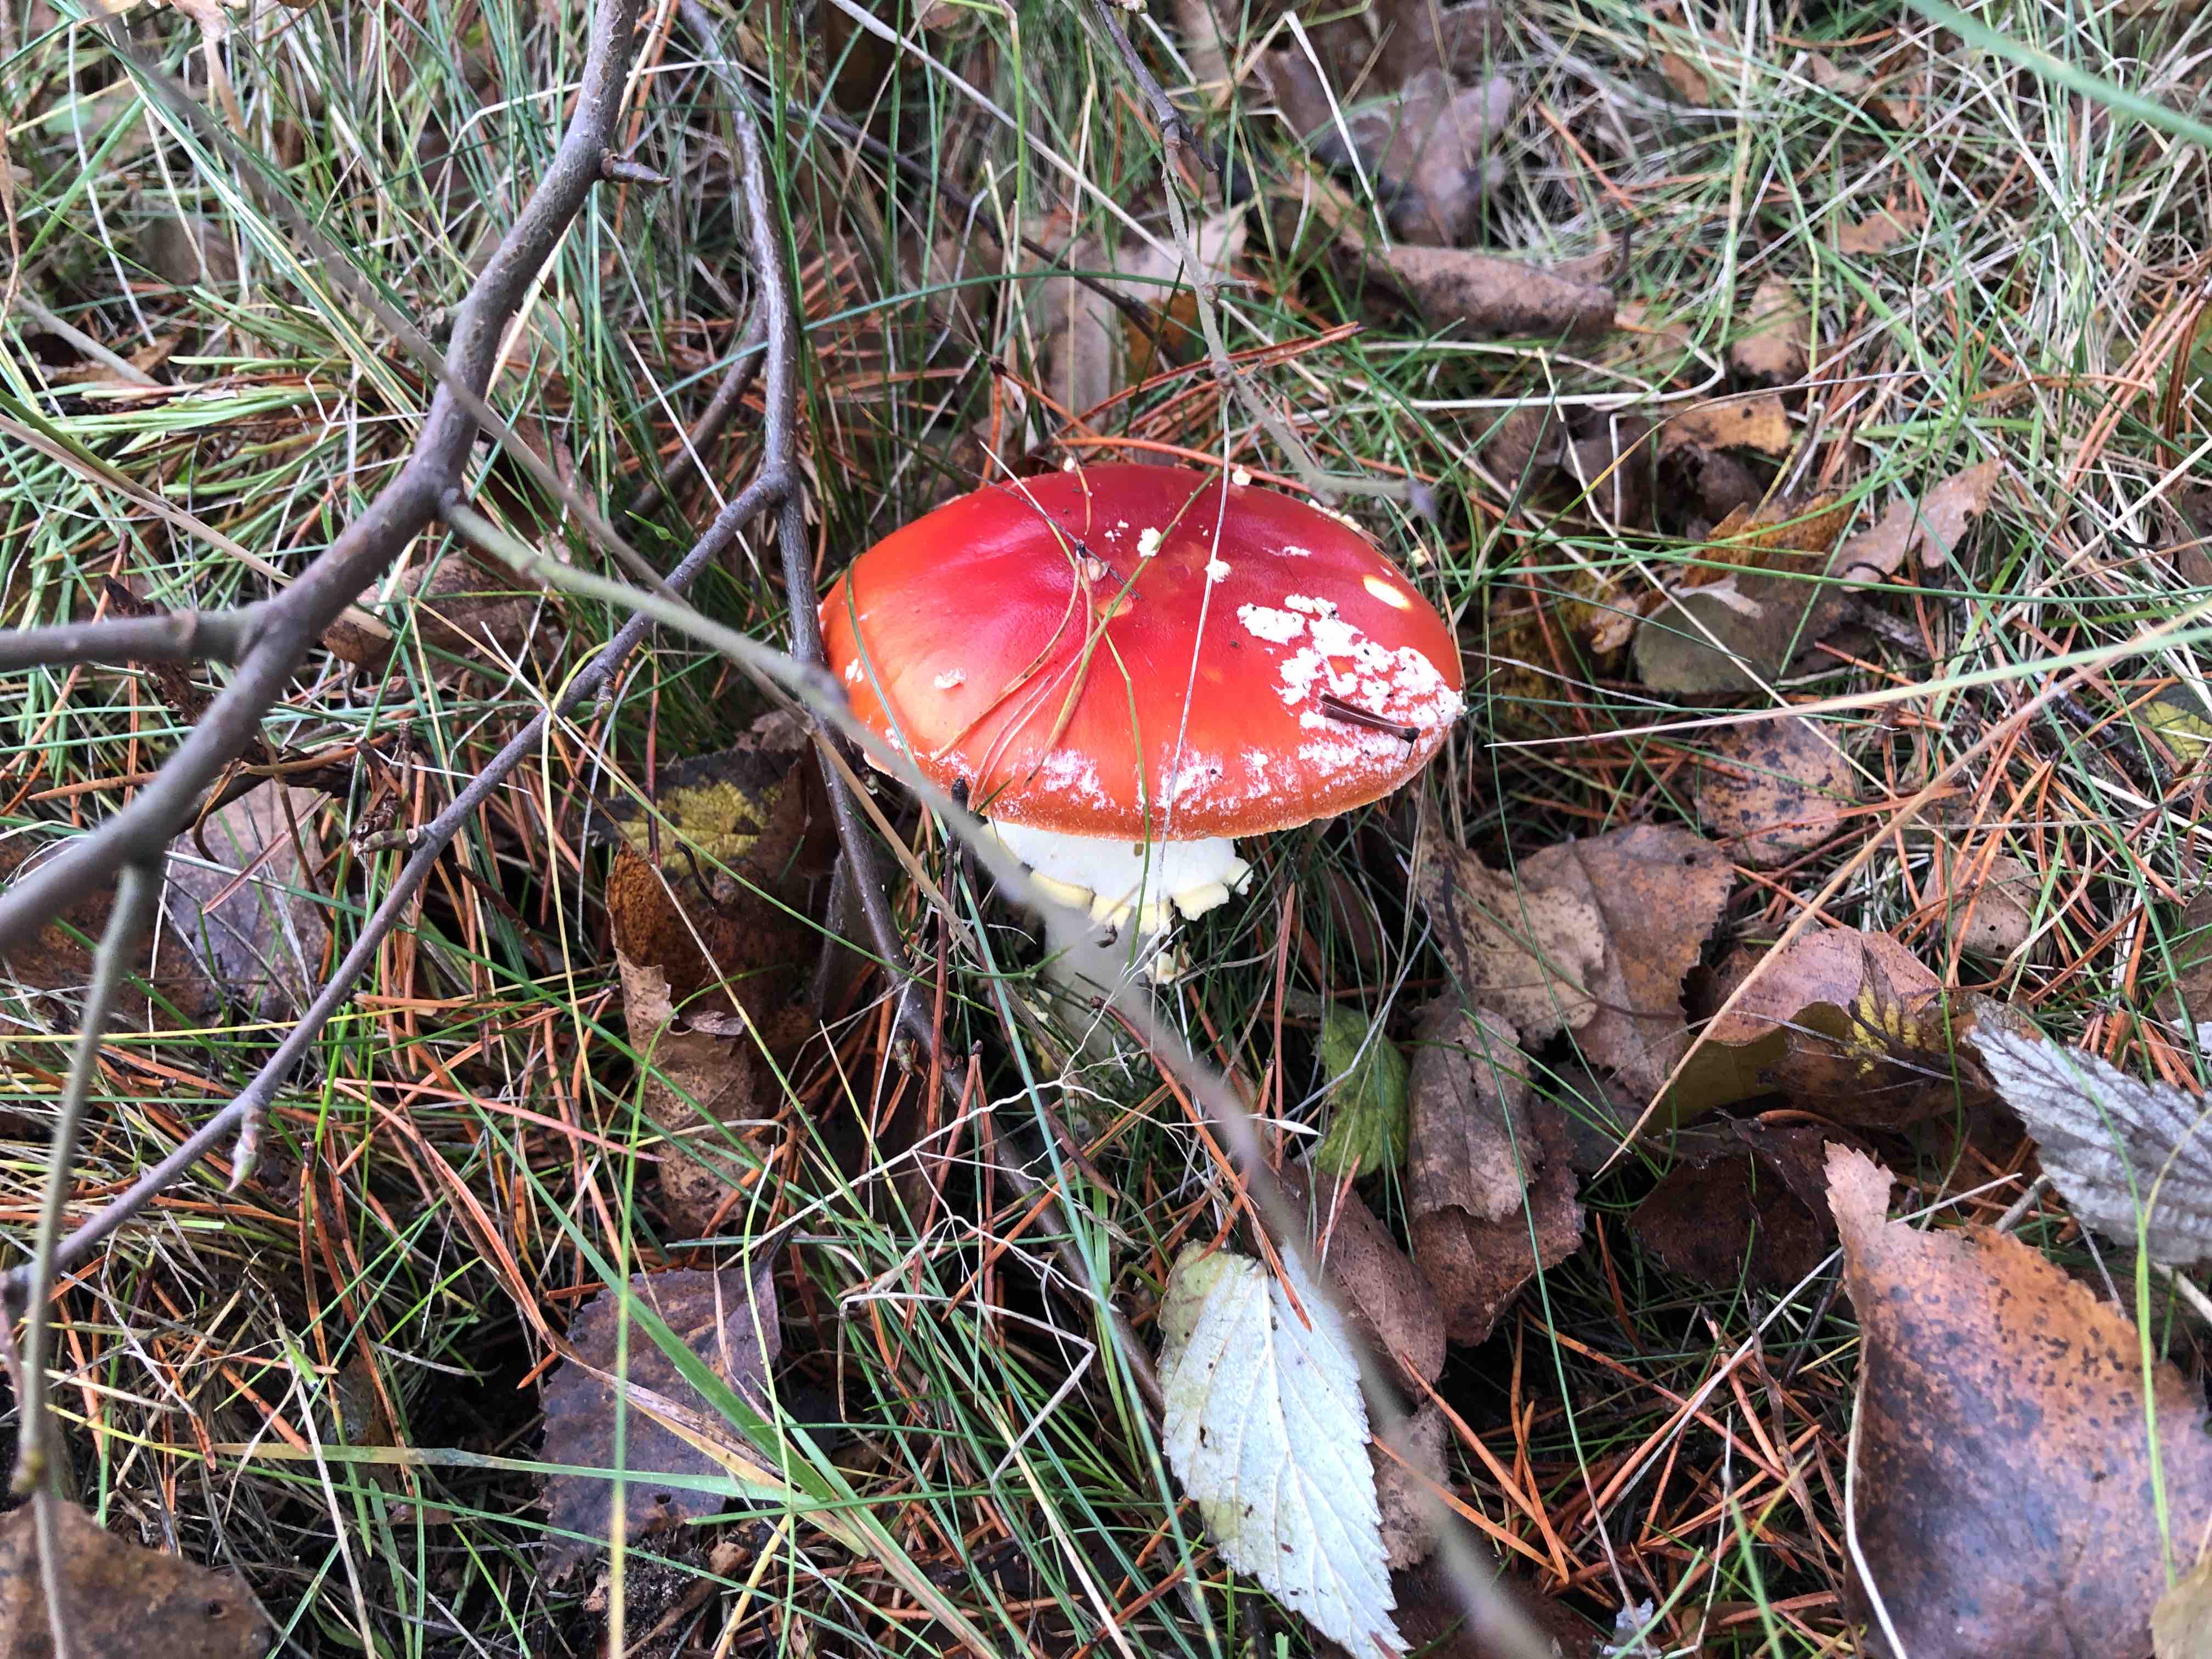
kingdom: Fungi
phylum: Basidiomycota
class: Agaricomycetes
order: Agaricales
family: Amanitaceae
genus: Amanita
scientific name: Amanita muscaria
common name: rød fluesvamp
